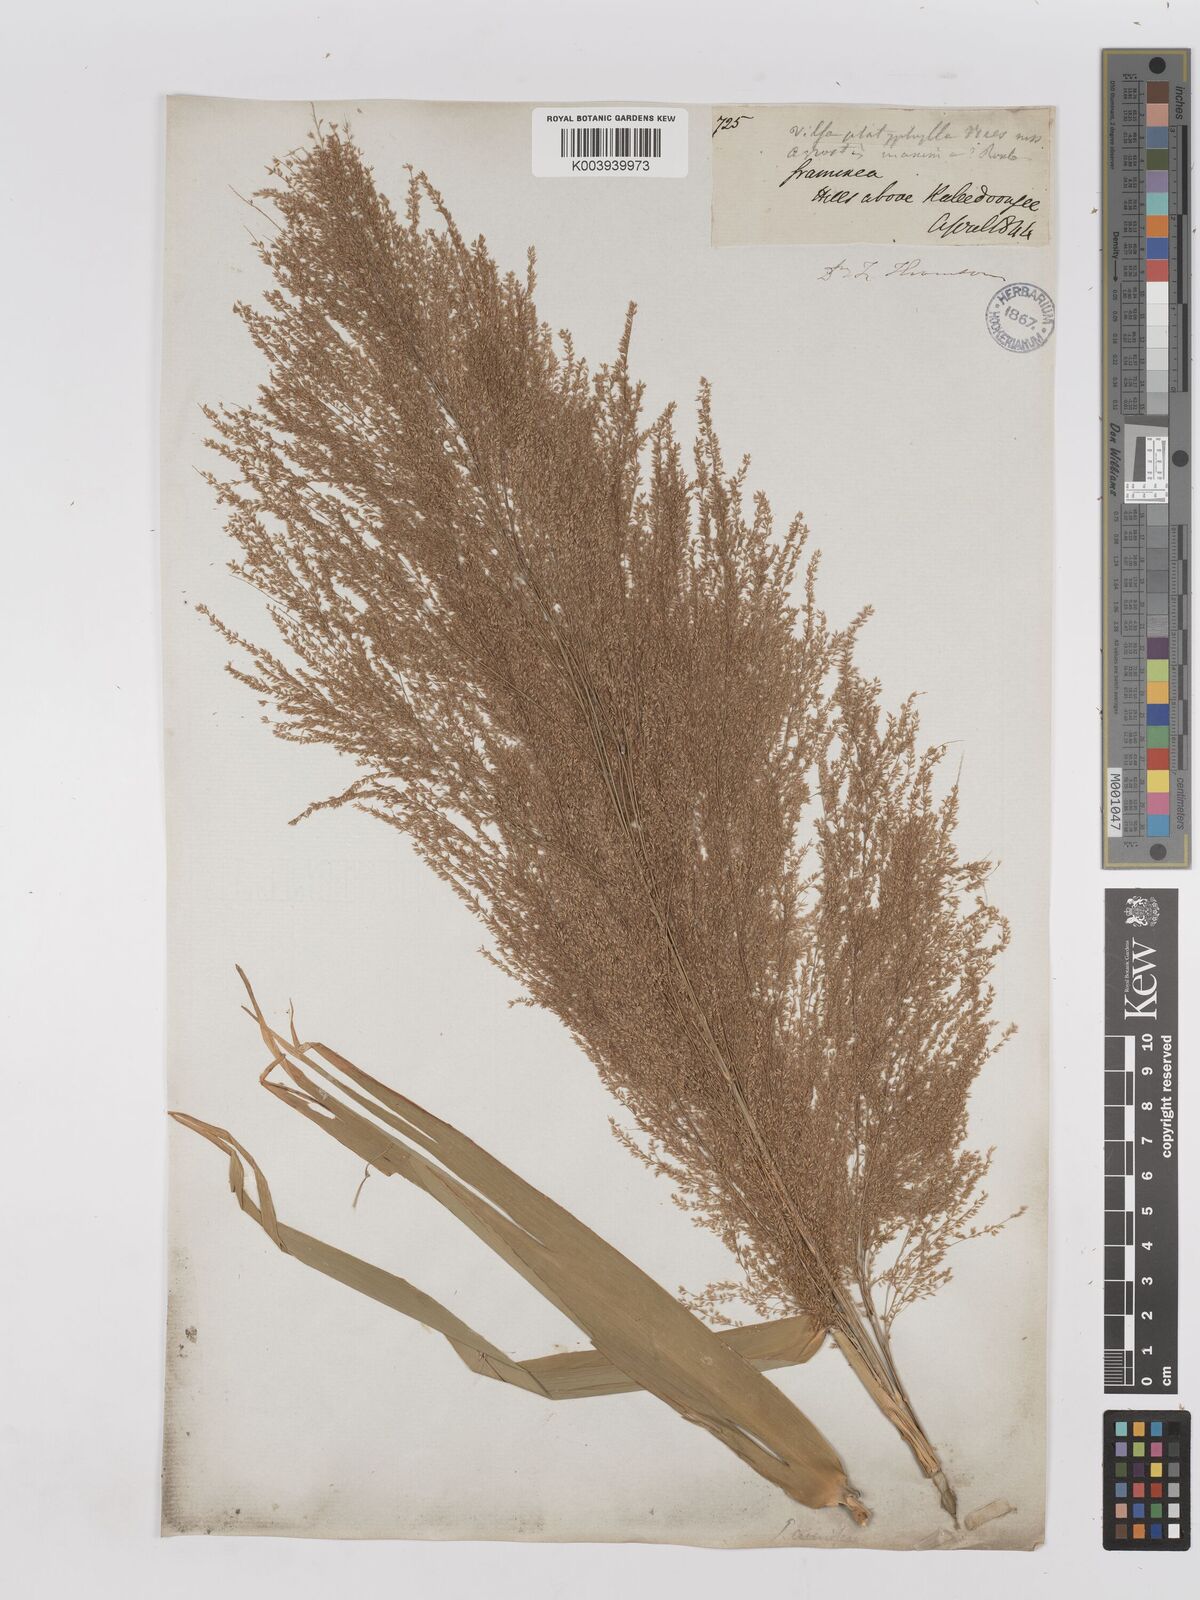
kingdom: Plantae
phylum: Tracheophyta
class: Liliopsida
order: Poales
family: Poaceae
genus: Thysanolaena
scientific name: Thysanolaena latifolia
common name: Tiger grass
